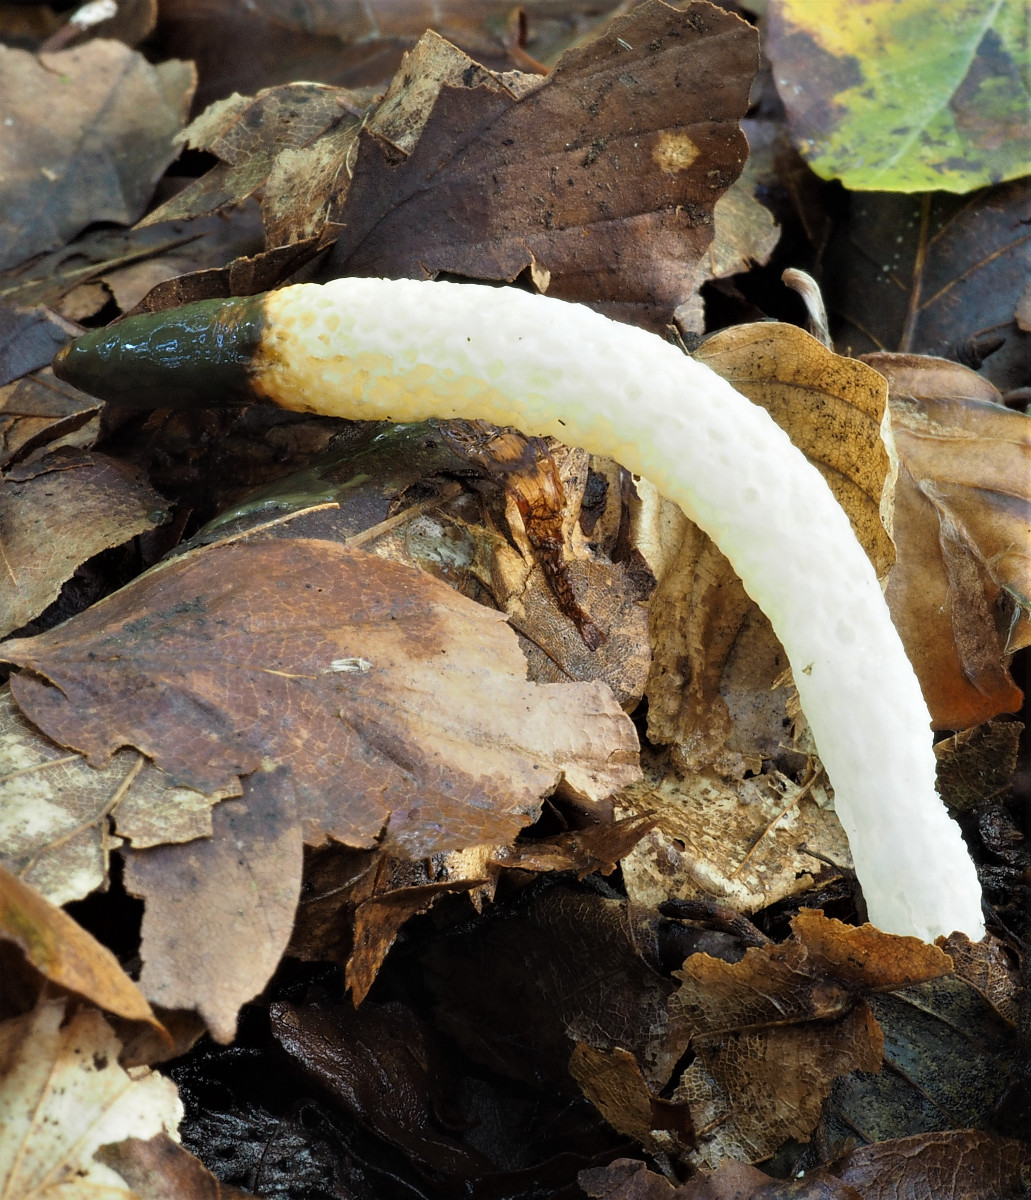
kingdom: Fungi
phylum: Basidiomycota
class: Agaricomycetes
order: Phallales
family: Phallaceae
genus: Mutinus
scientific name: Mutinus caninus
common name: hunde-stinksvamp
